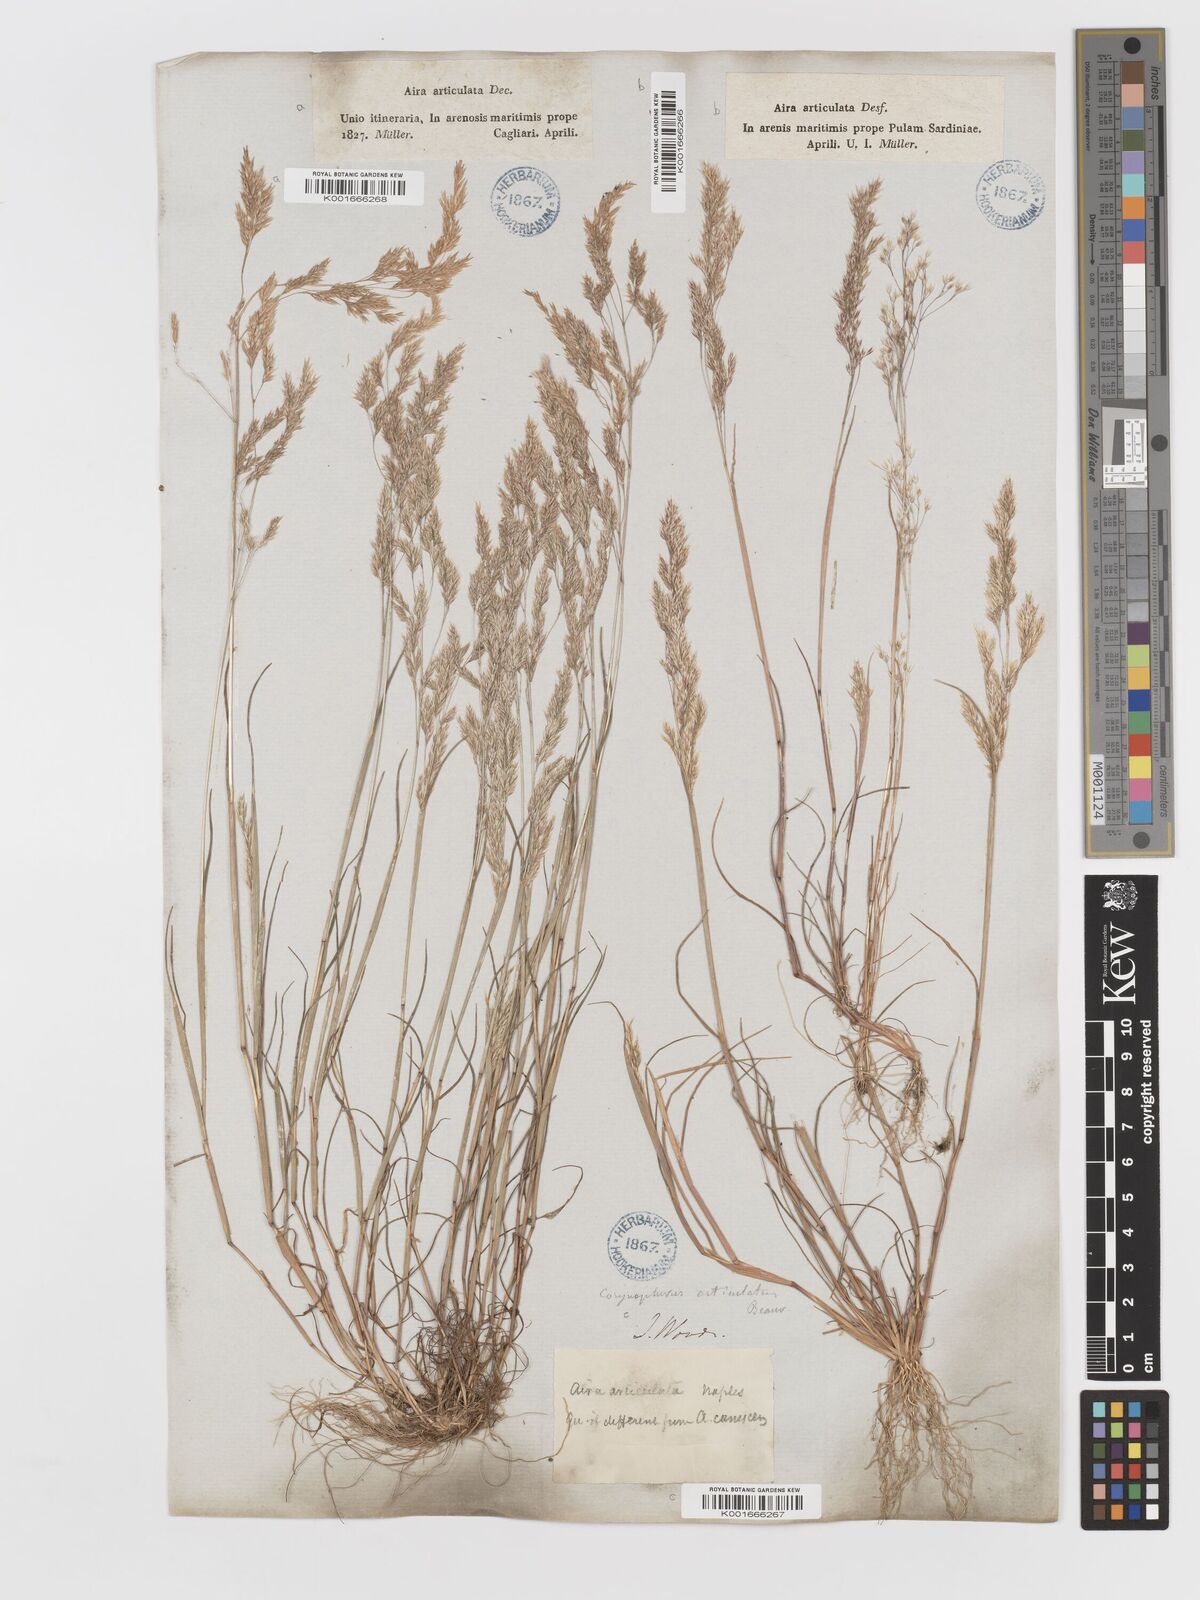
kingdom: Plantae
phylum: Tracheophyta
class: Liliopsida
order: Poales
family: Poaceae
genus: Corynephorus
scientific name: Corynephorus divaricatus
